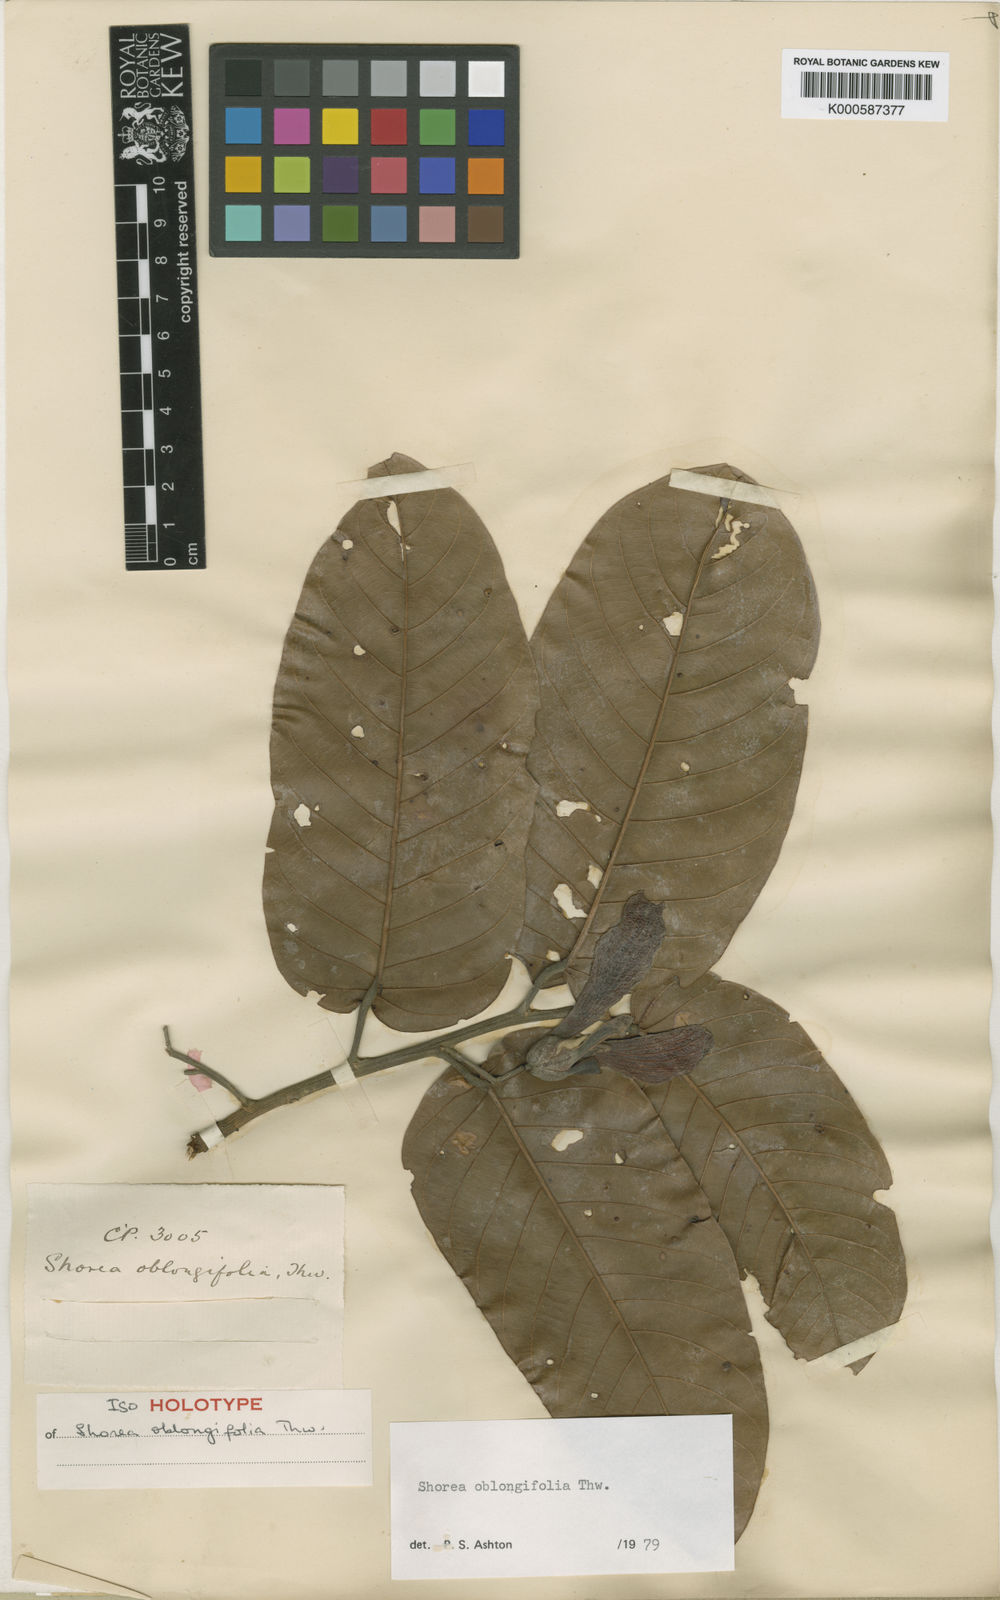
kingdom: Plantae
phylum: Tracheophyta
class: Magnoliopsida
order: Malvales
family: Dipterocarpaceae
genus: Shorea
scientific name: Shorea oblongifolia
